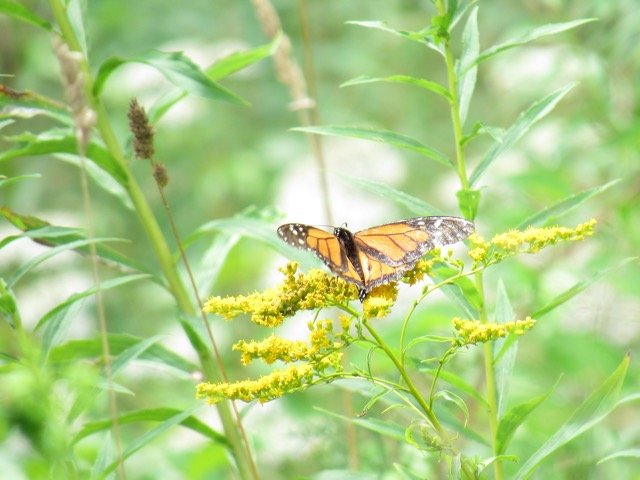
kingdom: Animalia
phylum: Arthropoda
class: Insecta
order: Lepidoptera
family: Nymphalidae
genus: Danaus
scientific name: Danaus plexippus
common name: Monarch
